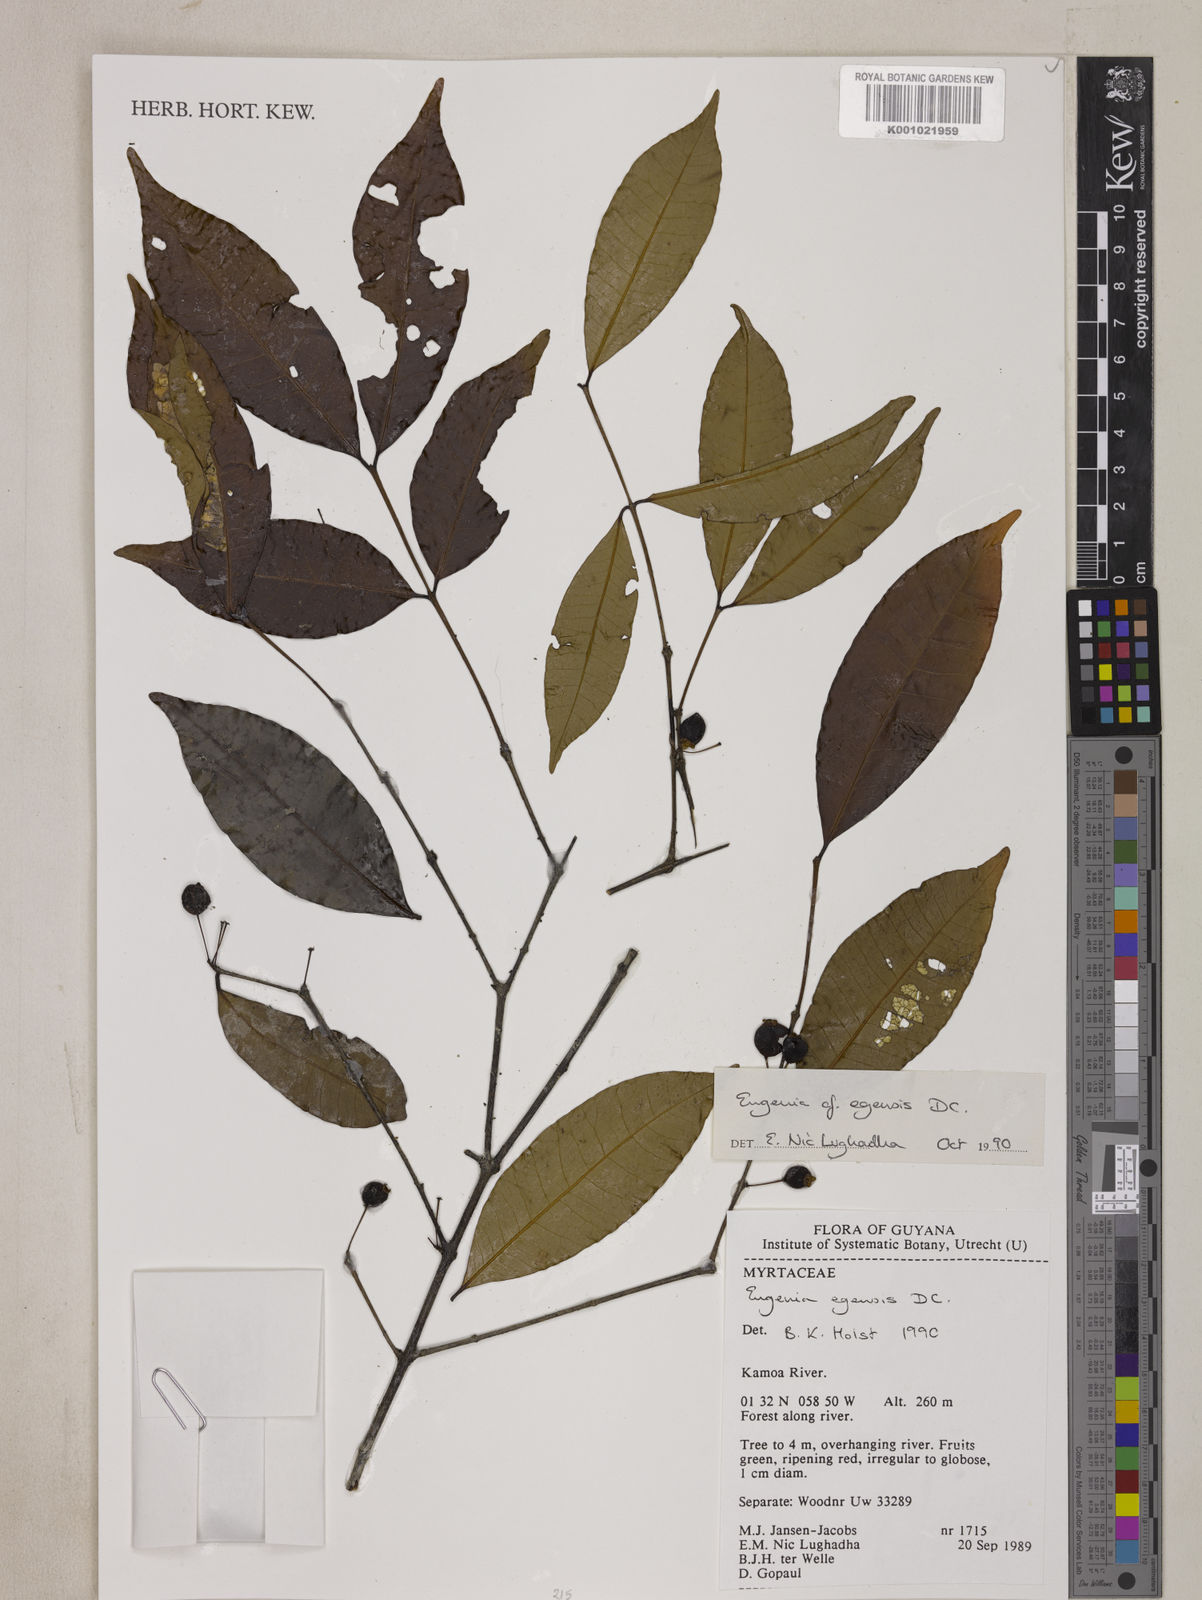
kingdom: Plantae
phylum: Tracheophyta
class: Magnoliopsida
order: Myrtales
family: Myrtaceae
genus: Eugenia
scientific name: Eugenia egensis
